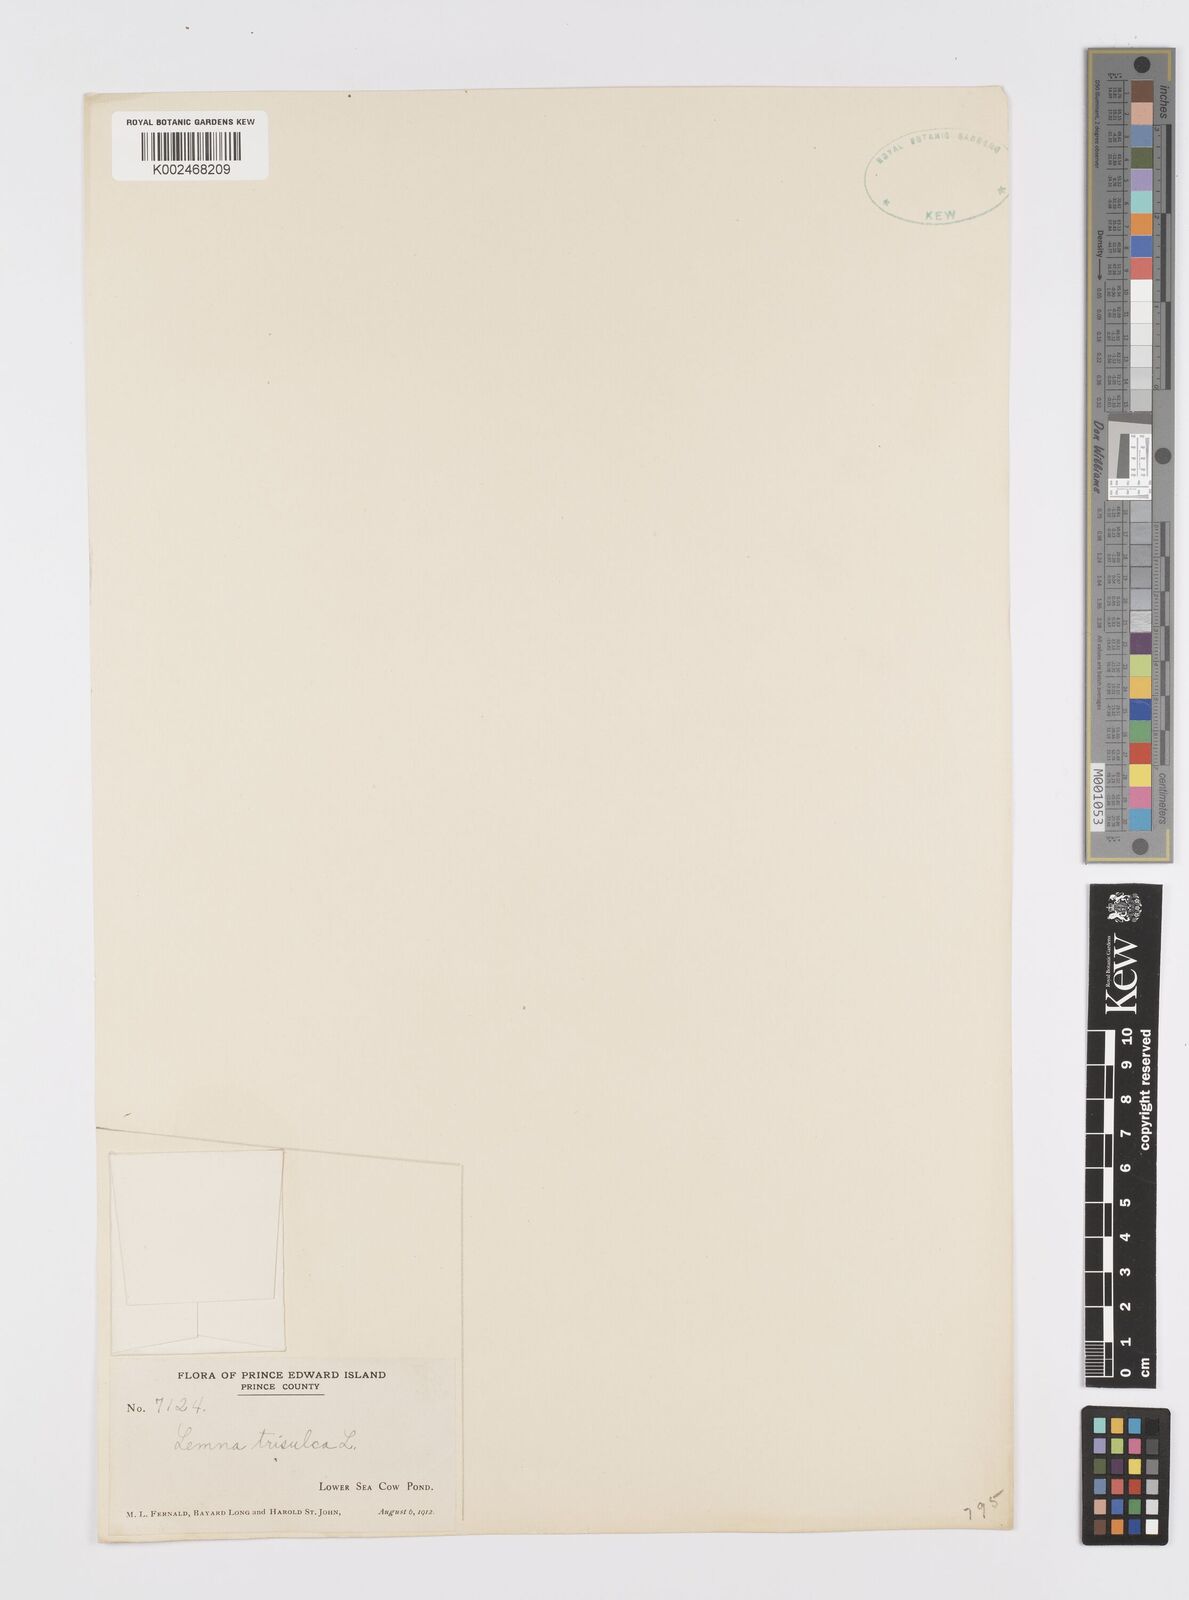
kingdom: Plantae
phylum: Tracheophyta
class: Liliopsida
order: Alismatales
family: Araceae
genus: Lemna
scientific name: Lemna trisulca
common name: Ivy-leaved duckweed
